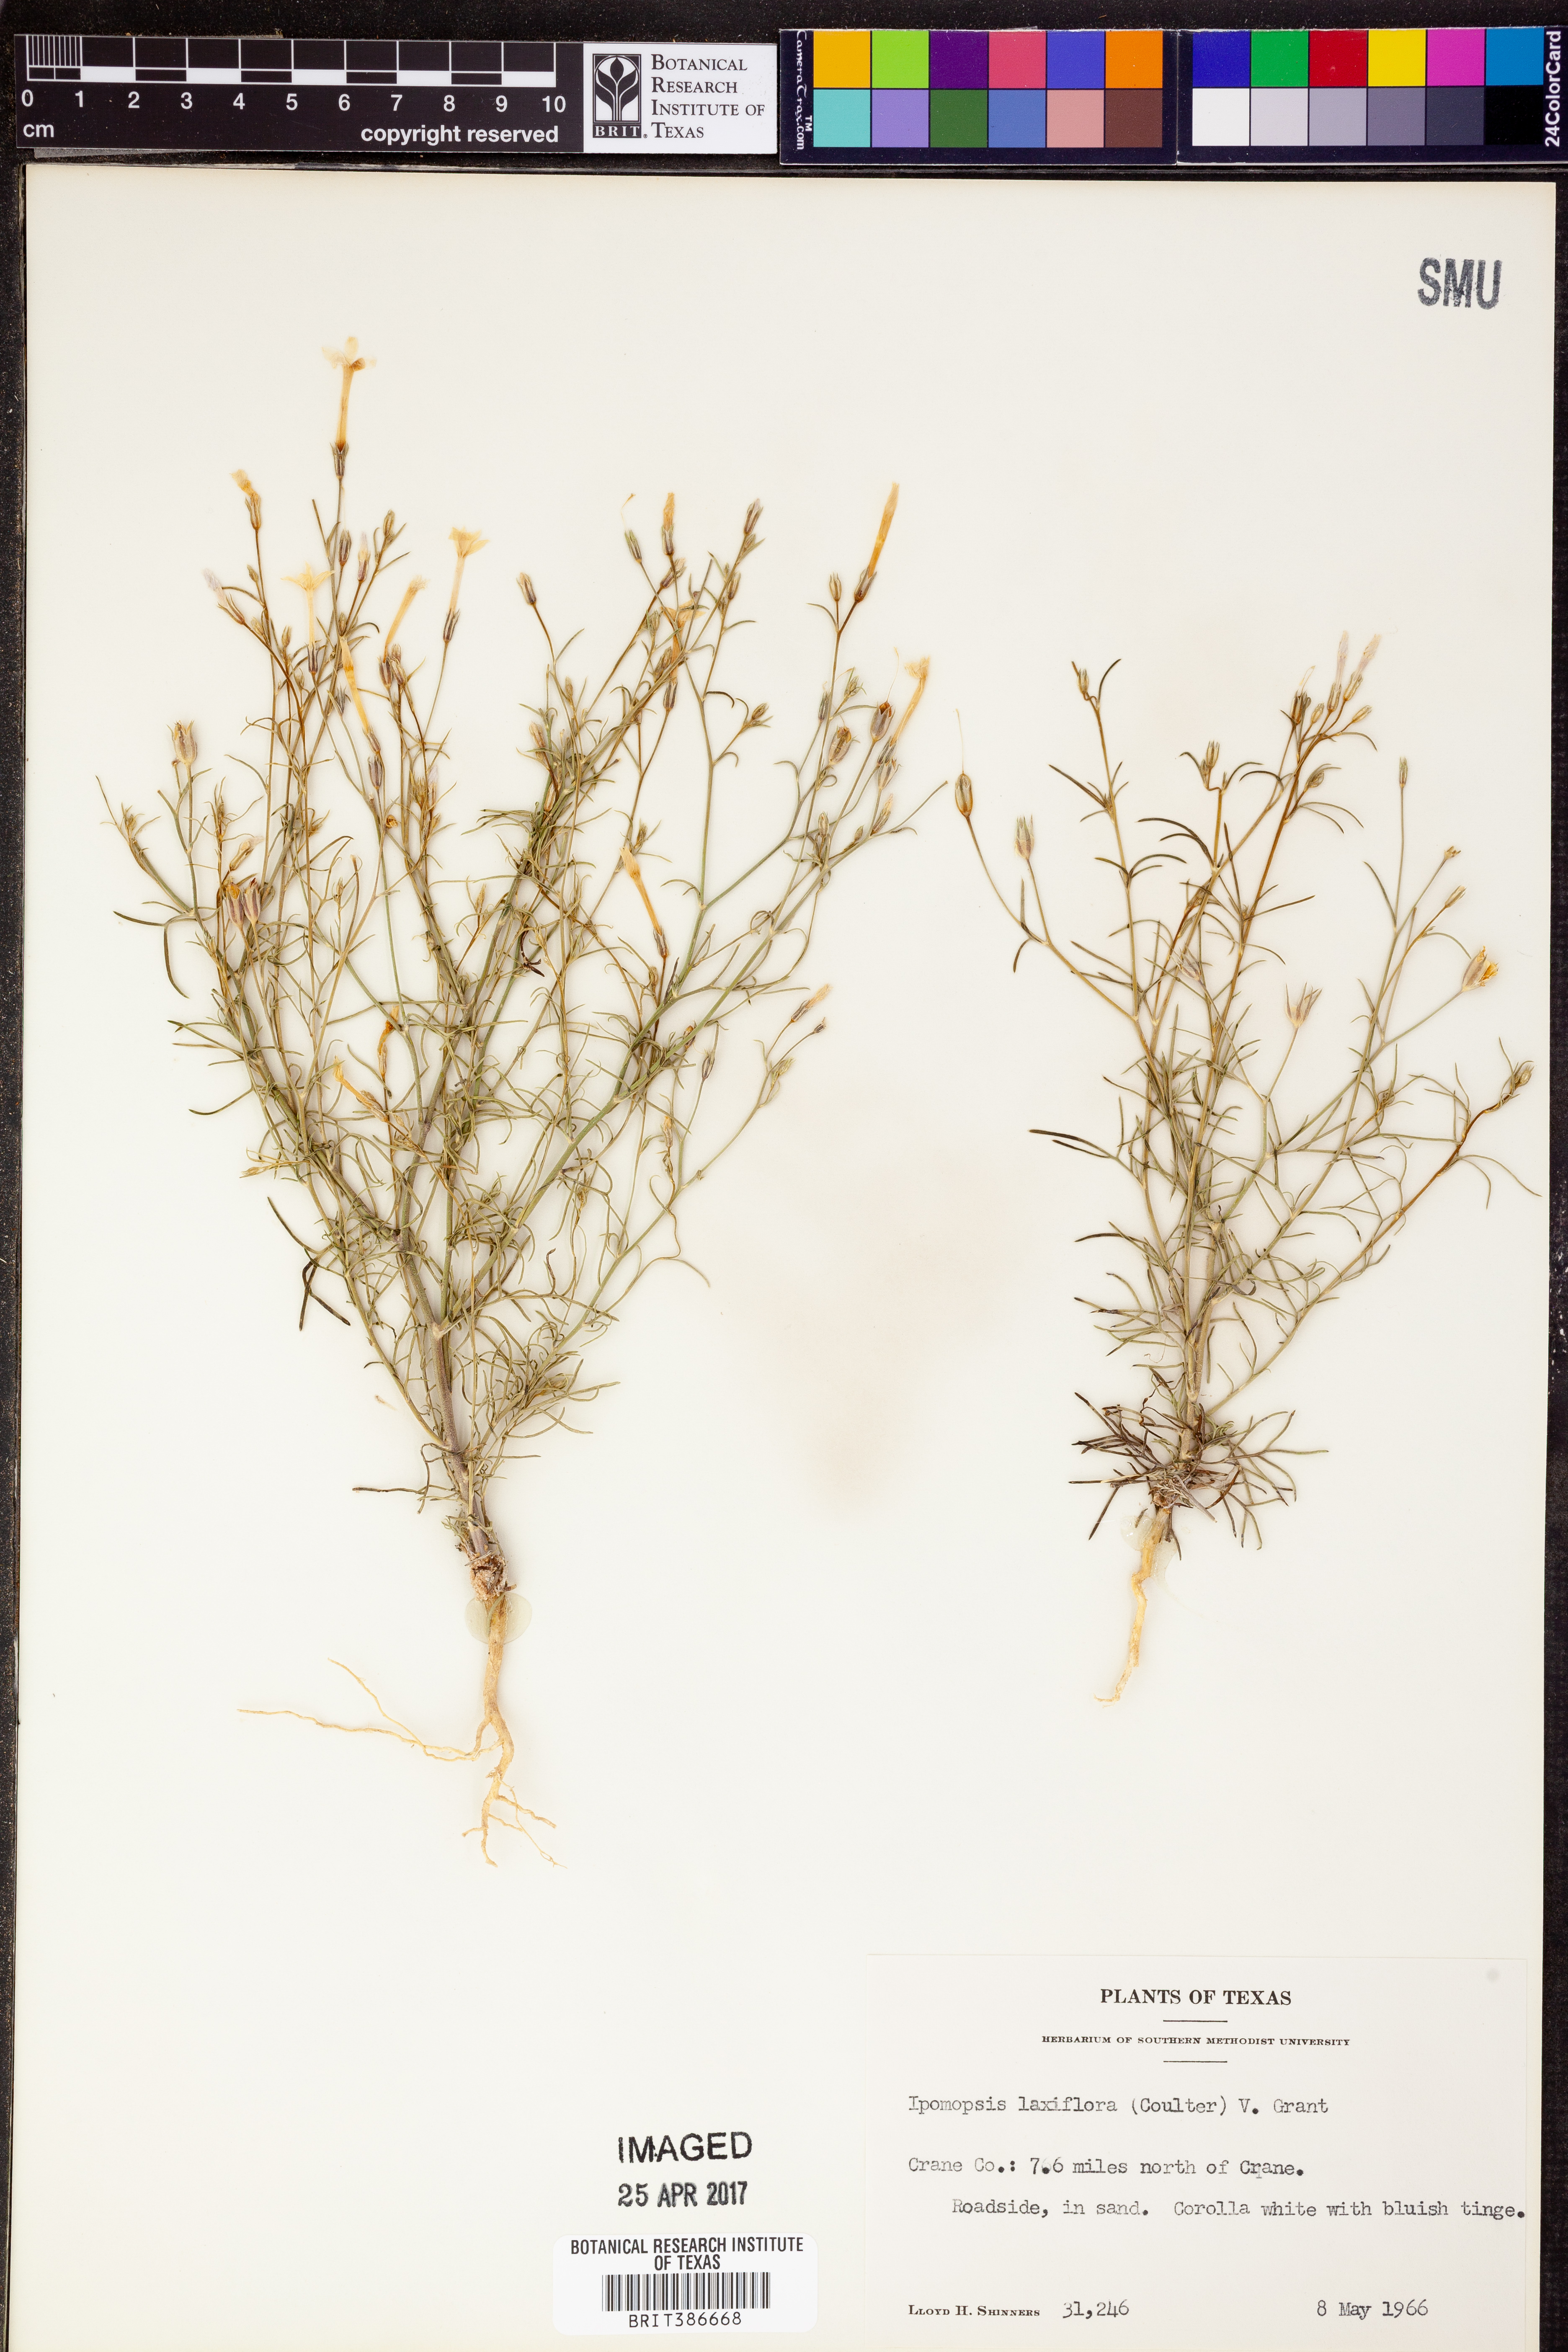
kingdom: Plantae
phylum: Tracheophyta
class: Magnoliopsida
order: Ericales
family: Polemoniaceae
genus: Ipomopsis
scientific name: Ipomopsis laxiflora
